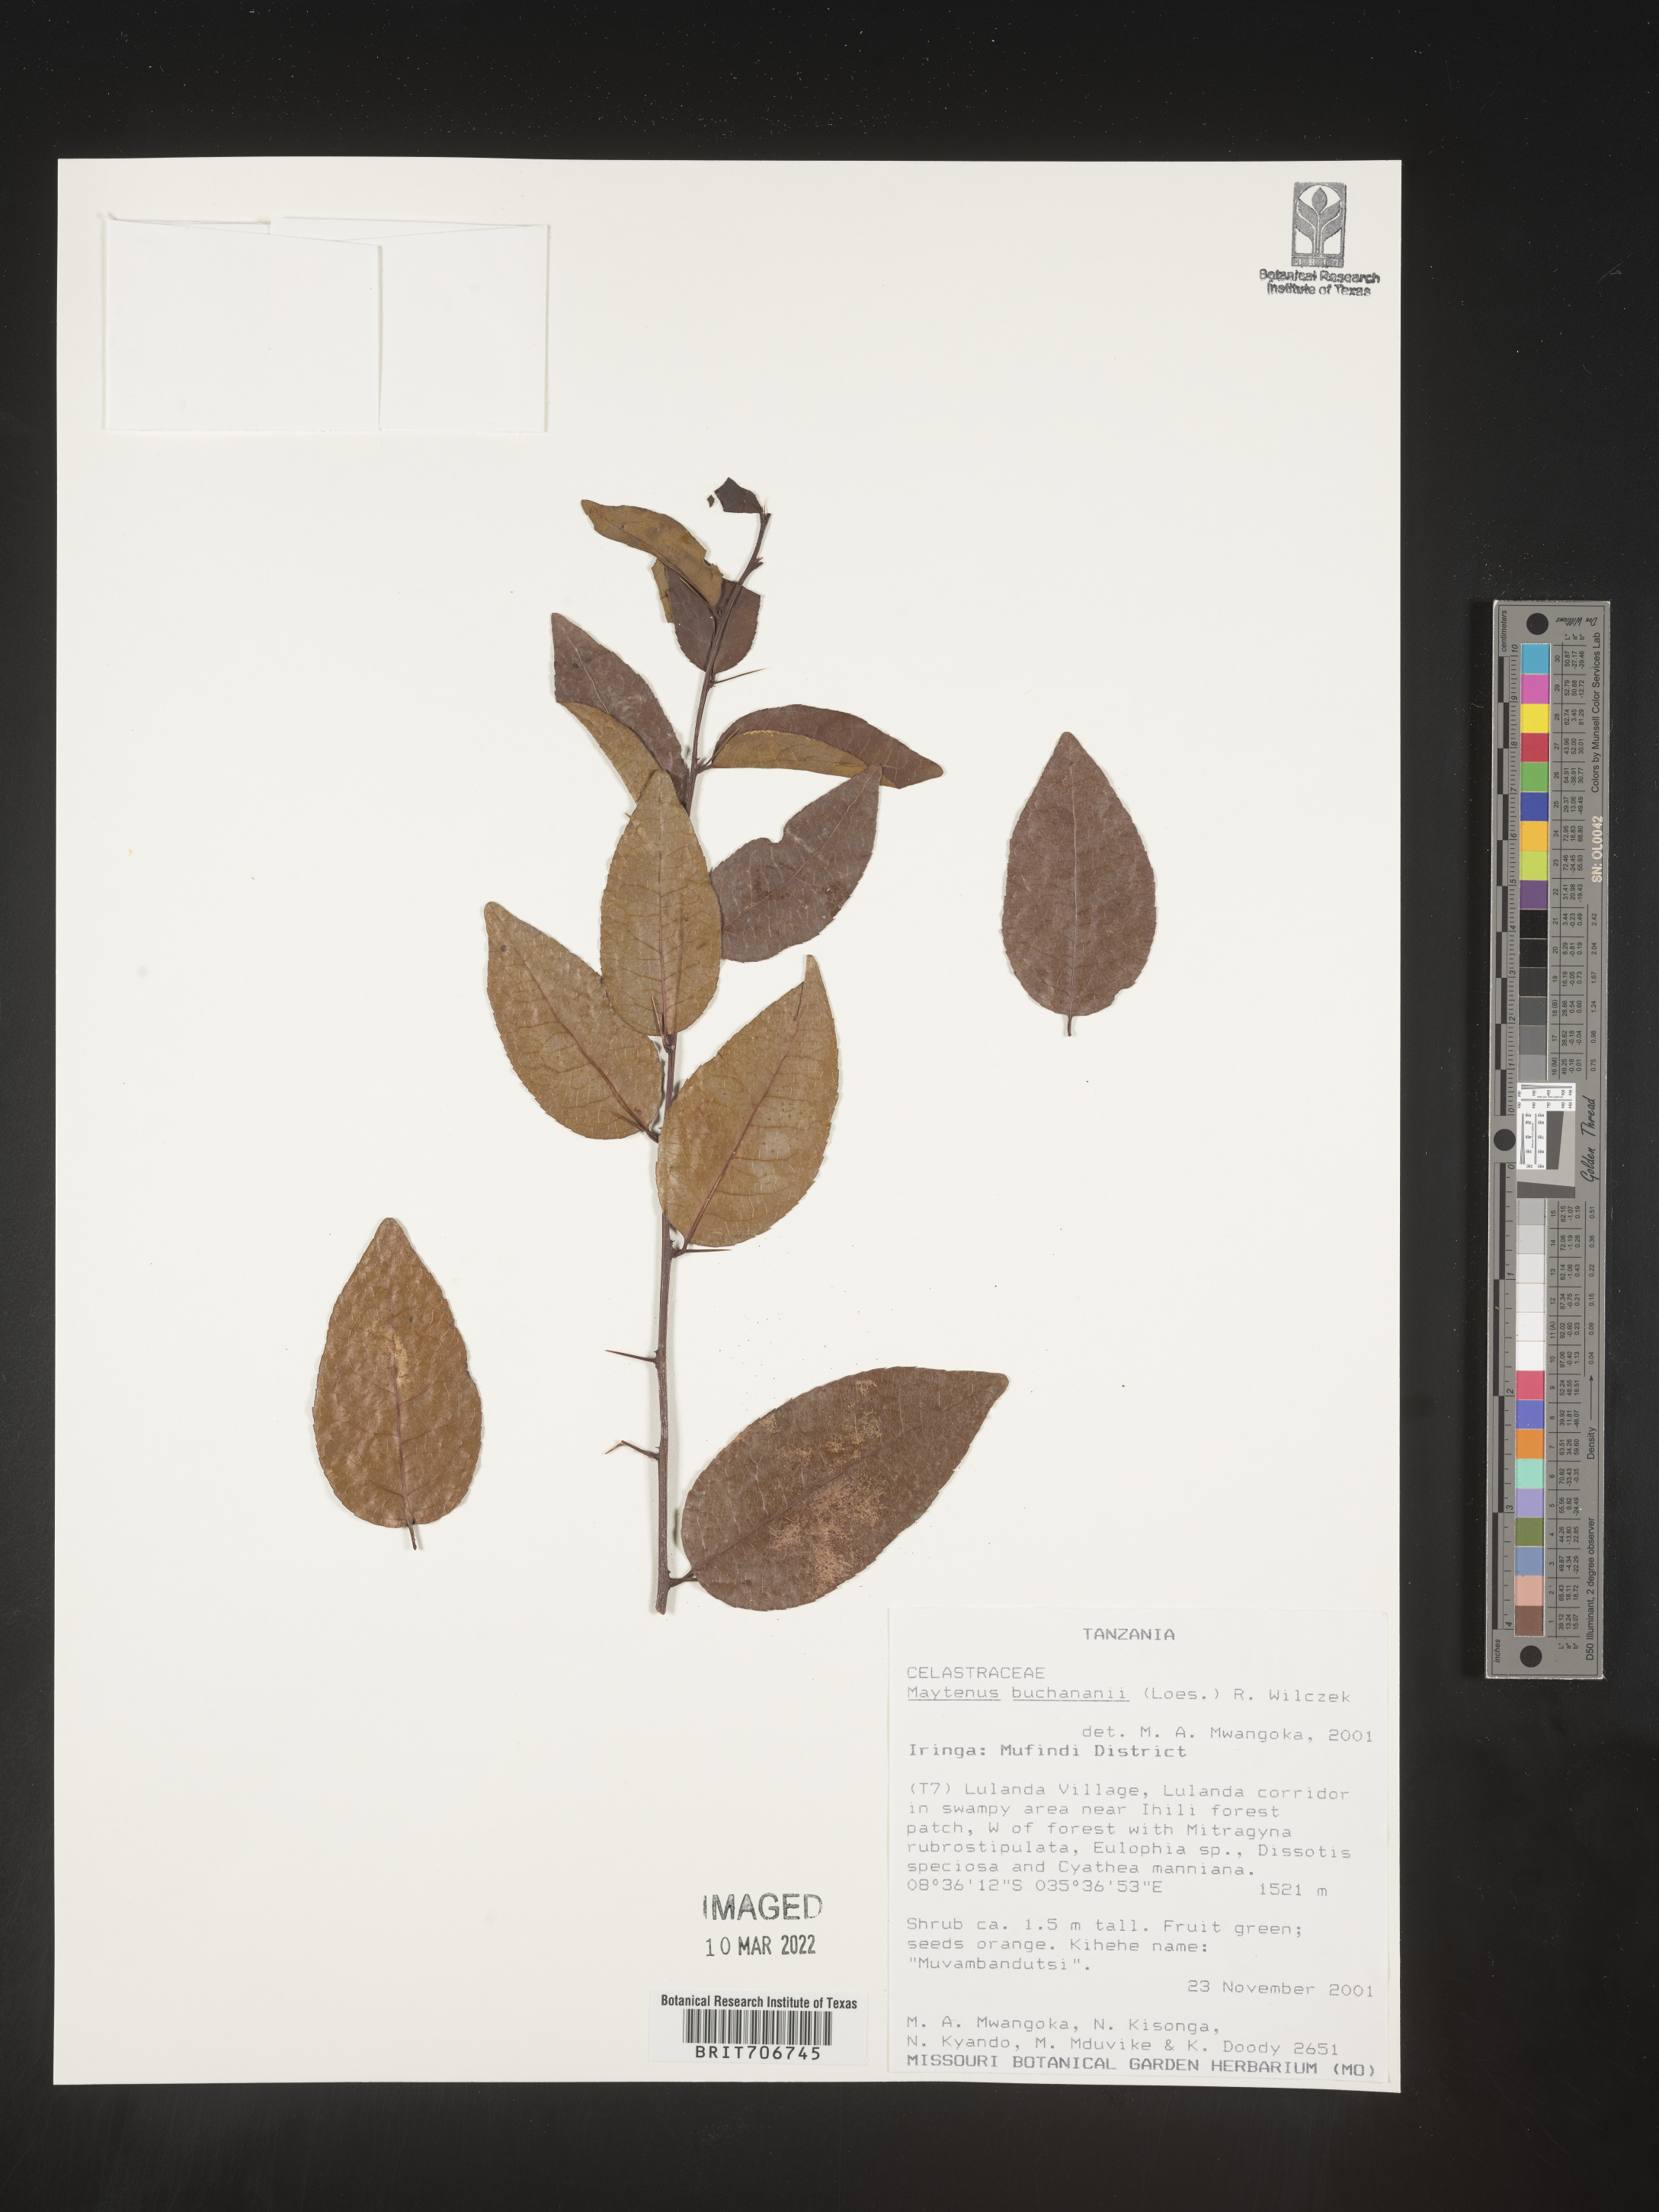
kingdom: Plantae
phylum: Tracheophyta
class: Magnoliopsida
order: Celastrales
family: Celastraceae
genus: Maytenus
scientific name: Maytenus
